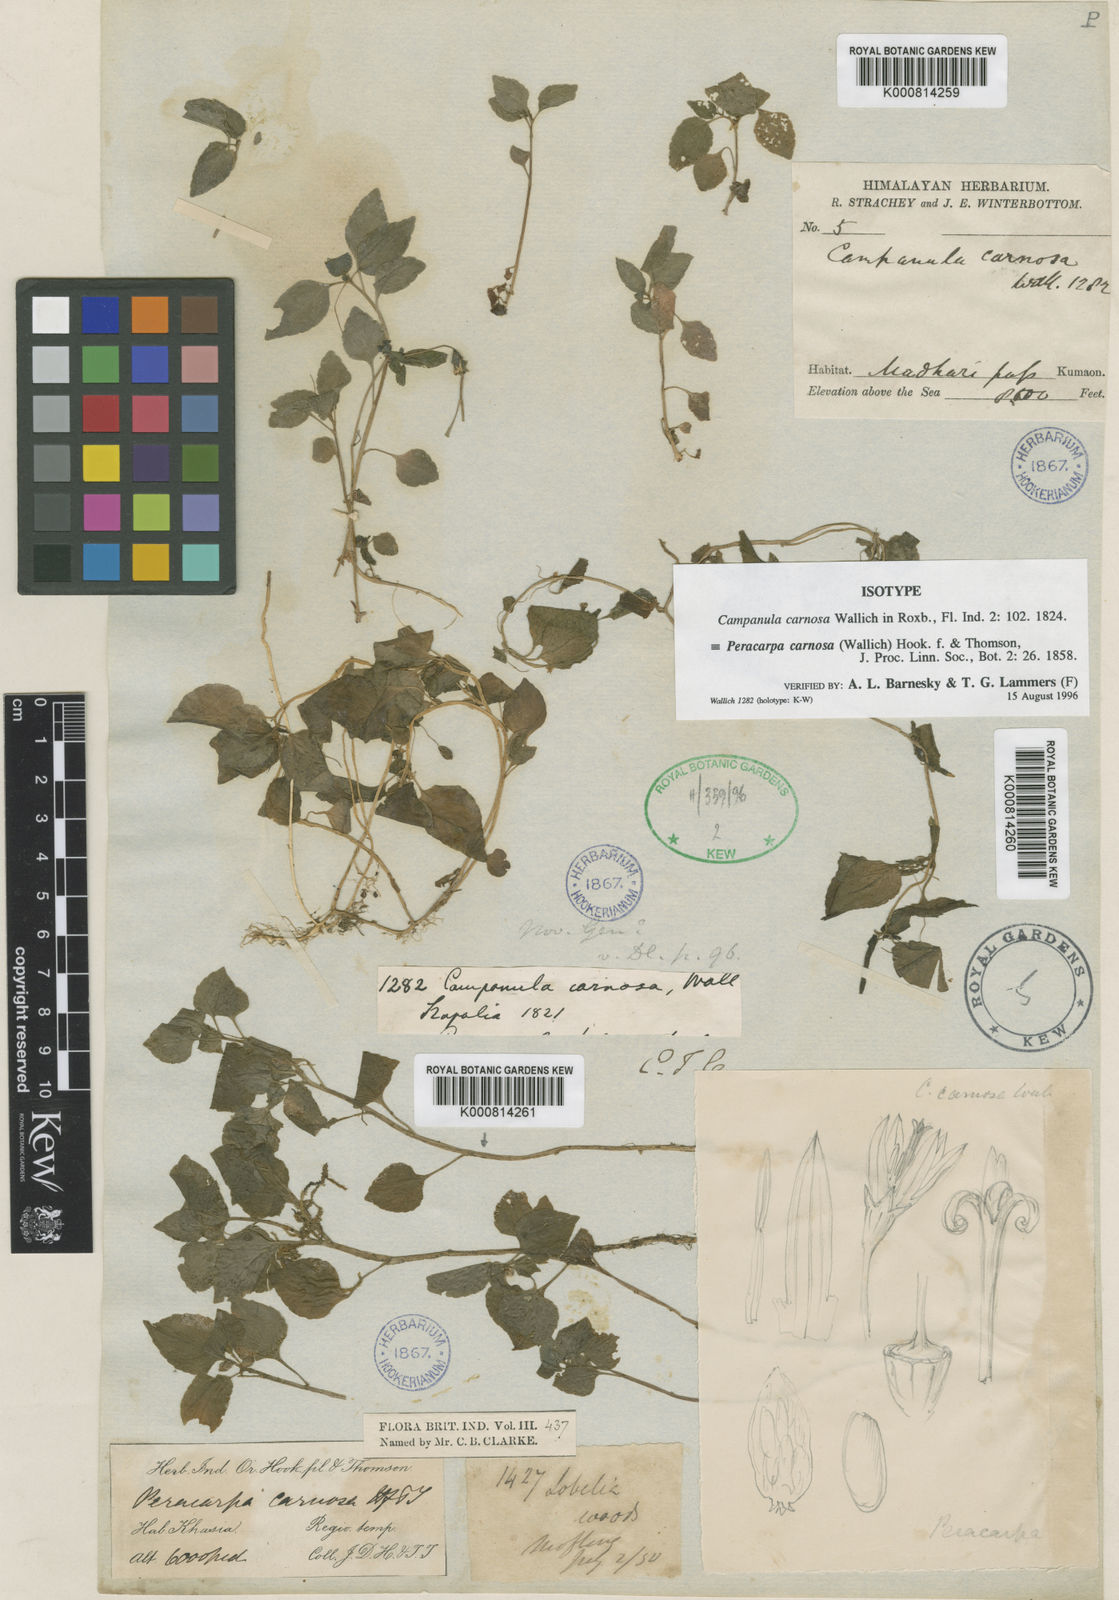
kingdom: Plantae
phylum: Tracheophyta
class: Magnoliopsida
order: Asterales
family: Campanulaceae
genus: Peracarpa
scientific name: Peracarpa carnosa
